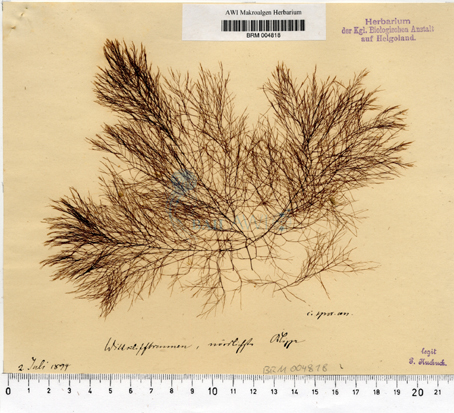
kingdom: Chromista
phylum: Ochrophyta
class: Phaeophyceae
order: Desmarestiales
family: Desmarestiaceae
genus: Desmarestia
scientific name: Desmarestia viridis
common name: Stringy acid kelp
